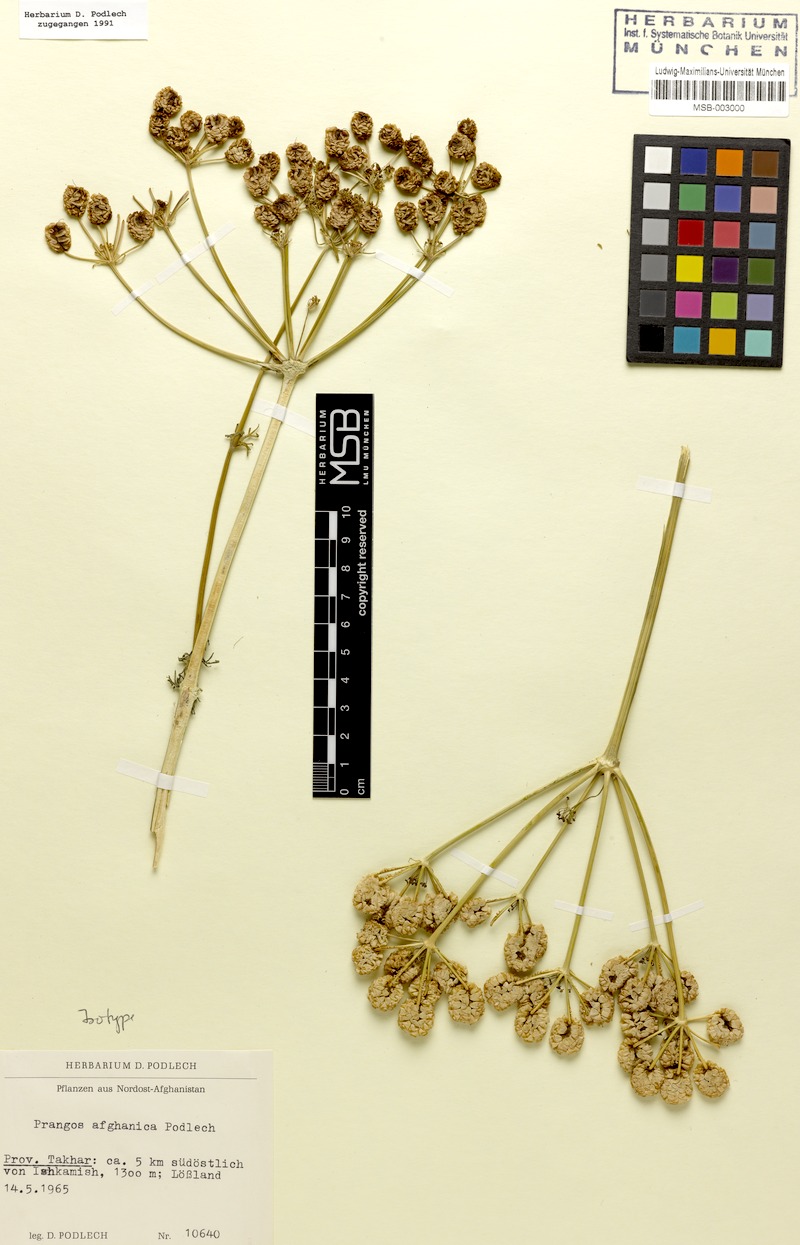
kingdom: Plantae
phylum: Tracheophyta
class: Magnoliopsida
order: Apiales
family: Apiaceae
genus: Prangos
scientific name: Prangos bucharica
